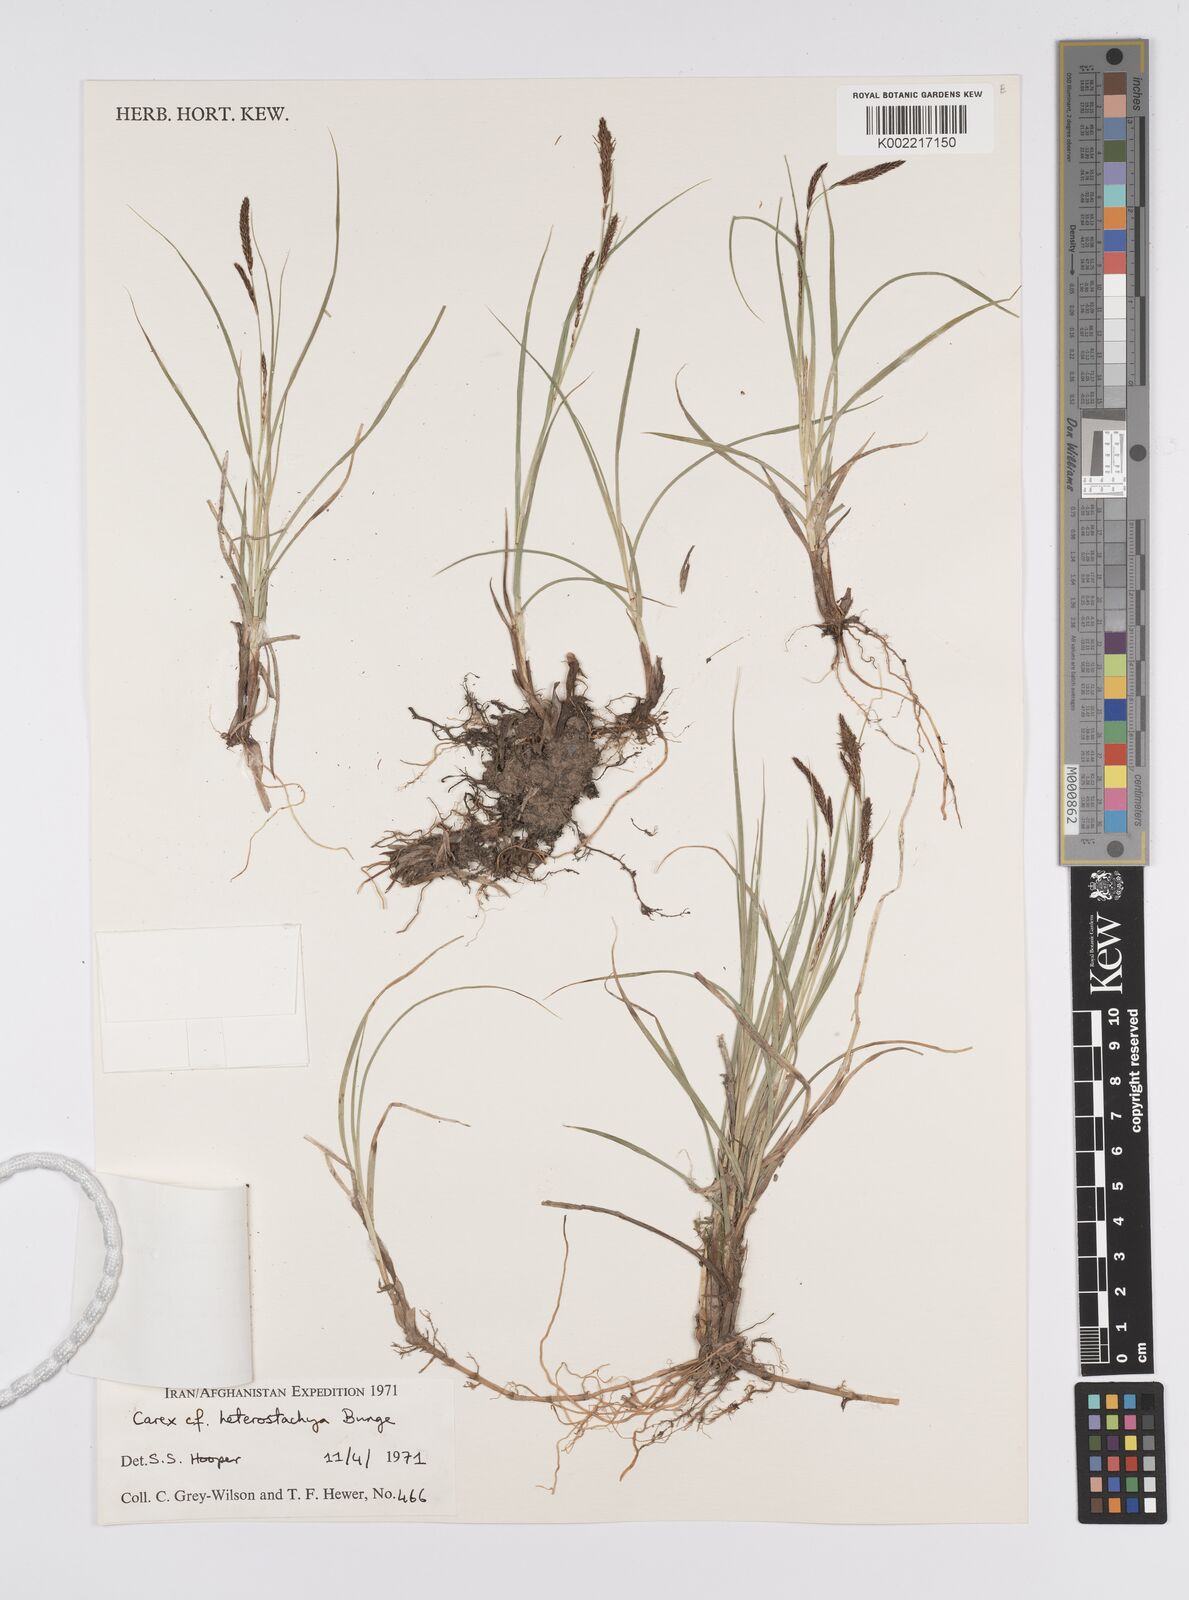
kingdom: Plantae
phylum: Tracheophyta
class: Liliopsida
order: Poales
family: Cyperaceae
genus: Carex
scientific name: Carex heterostachya
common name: Different-spike sedge
